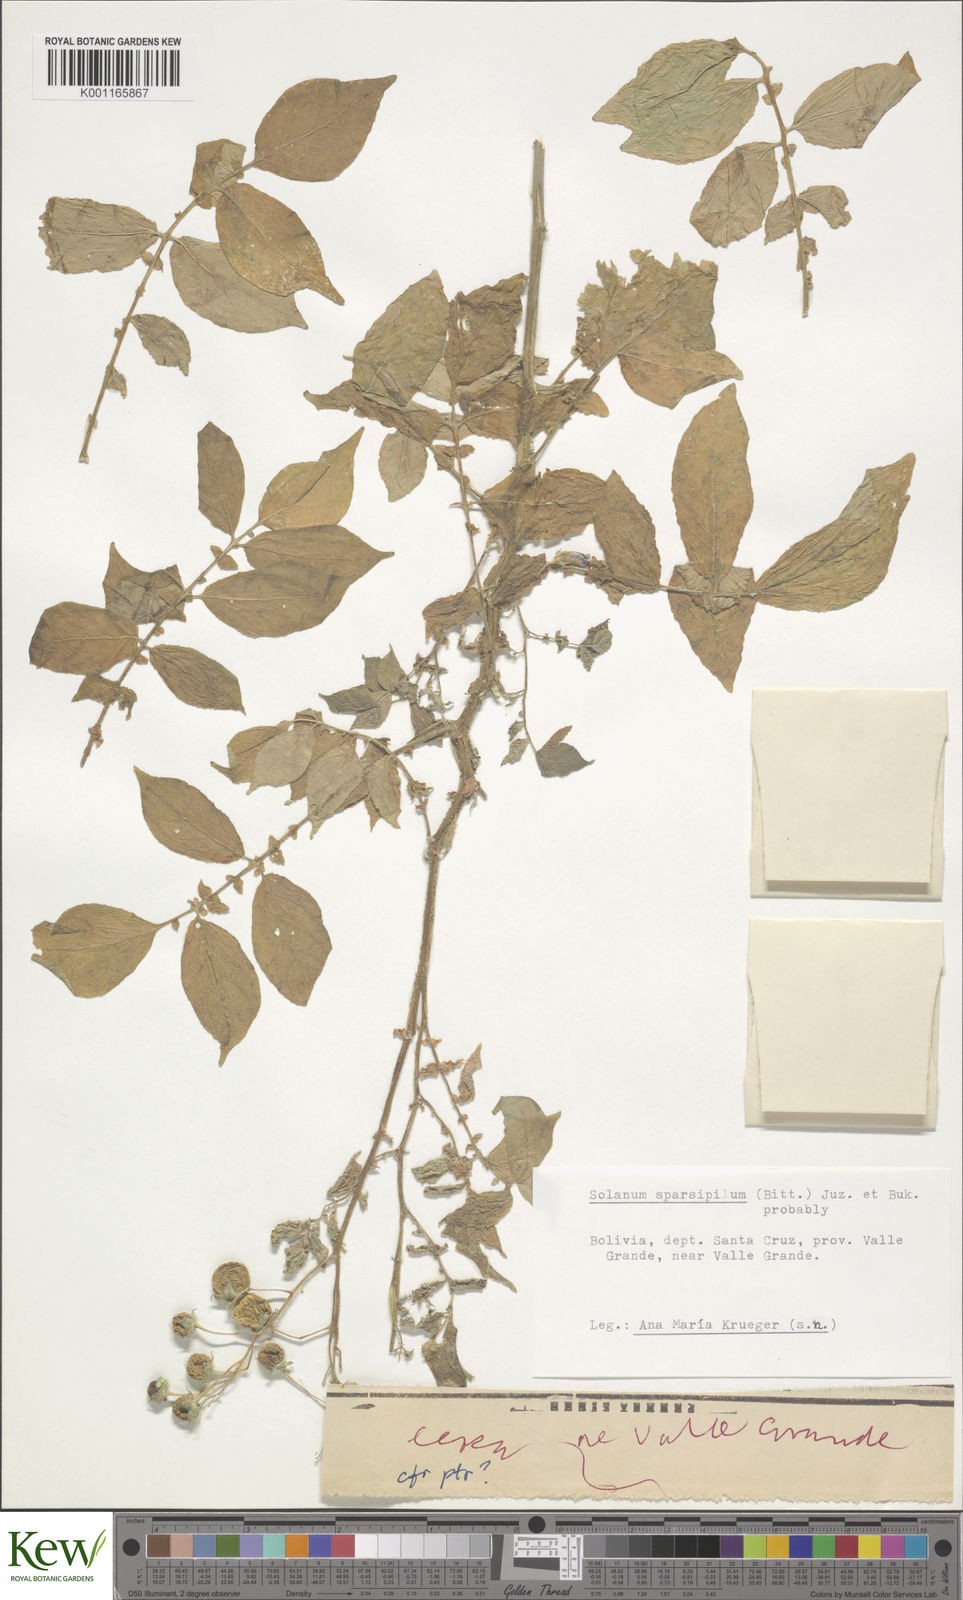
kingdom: Plantae
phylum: Tracheophyta
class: Magnoliopsida
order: Solanales
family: Solanaceae
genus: Solanum
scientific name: Solanum brevicaule
